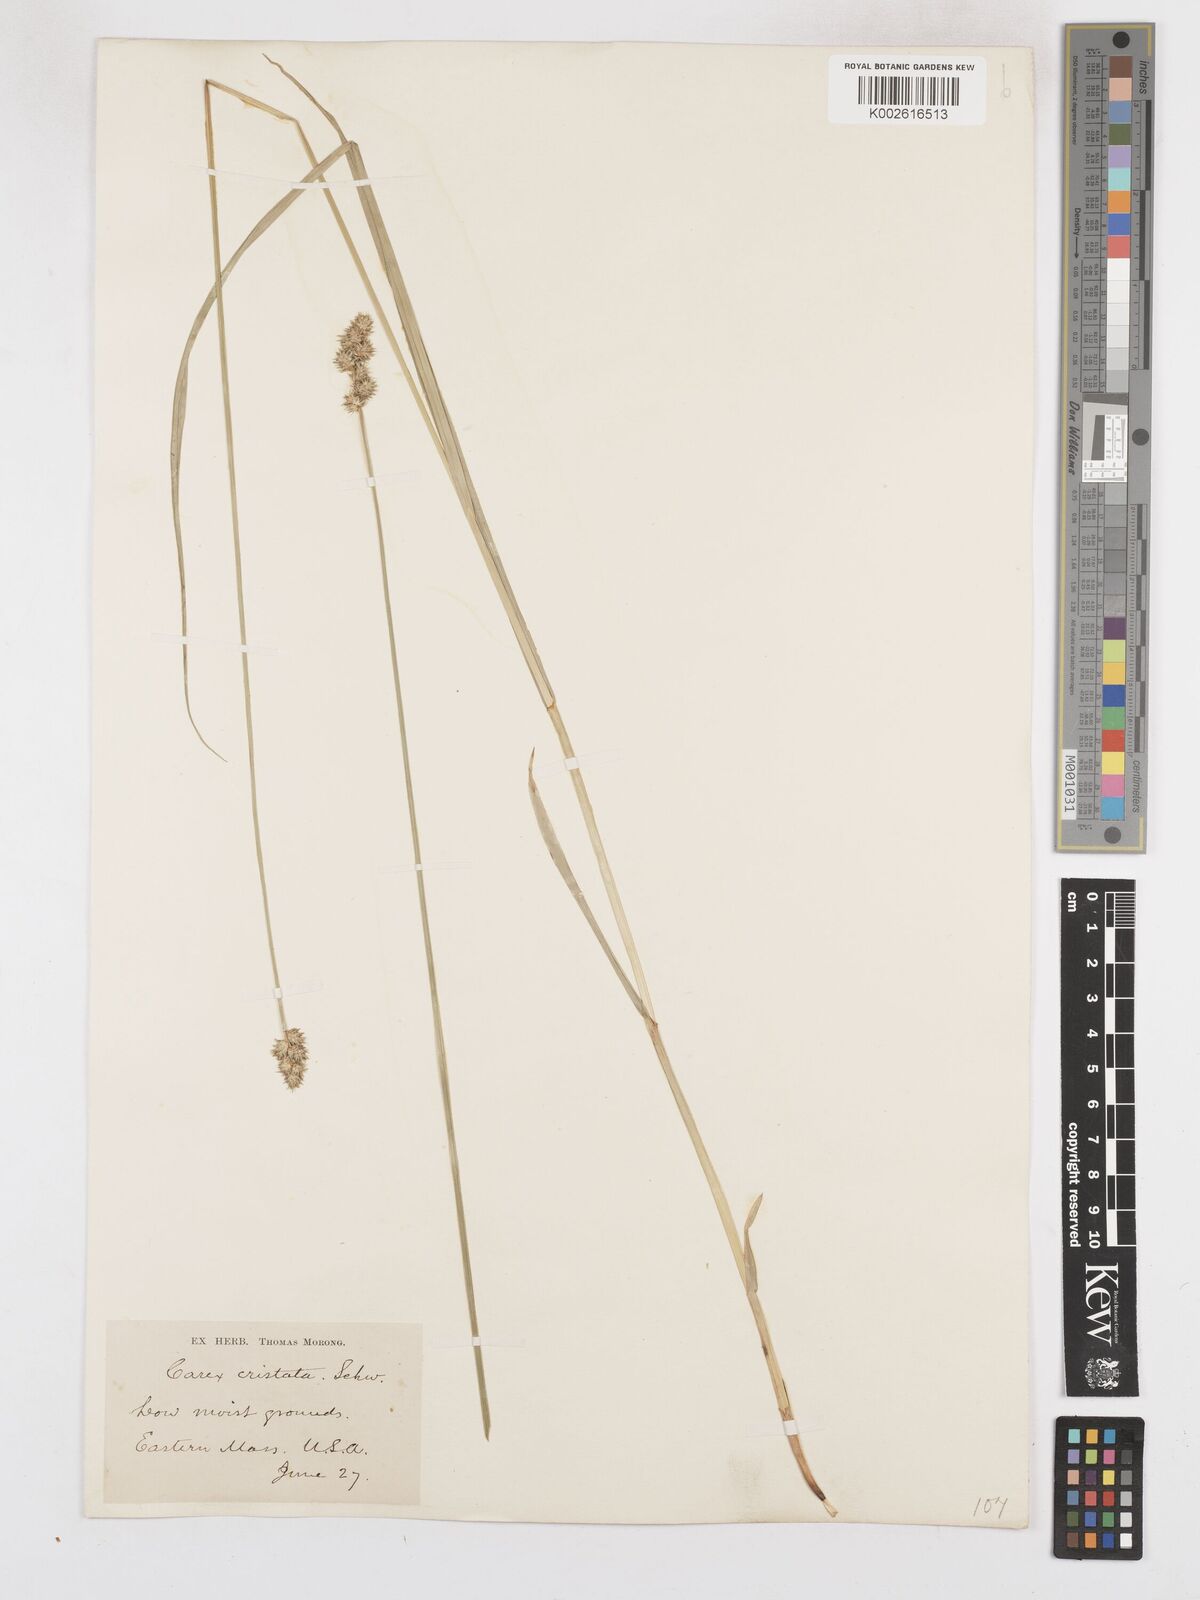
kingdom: Plantae
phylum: Tracheophyta
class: Liliopsida
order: Poales
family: Cyperaceae
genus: Carex
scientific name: Carex cristatella
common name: Crested oval sedge
